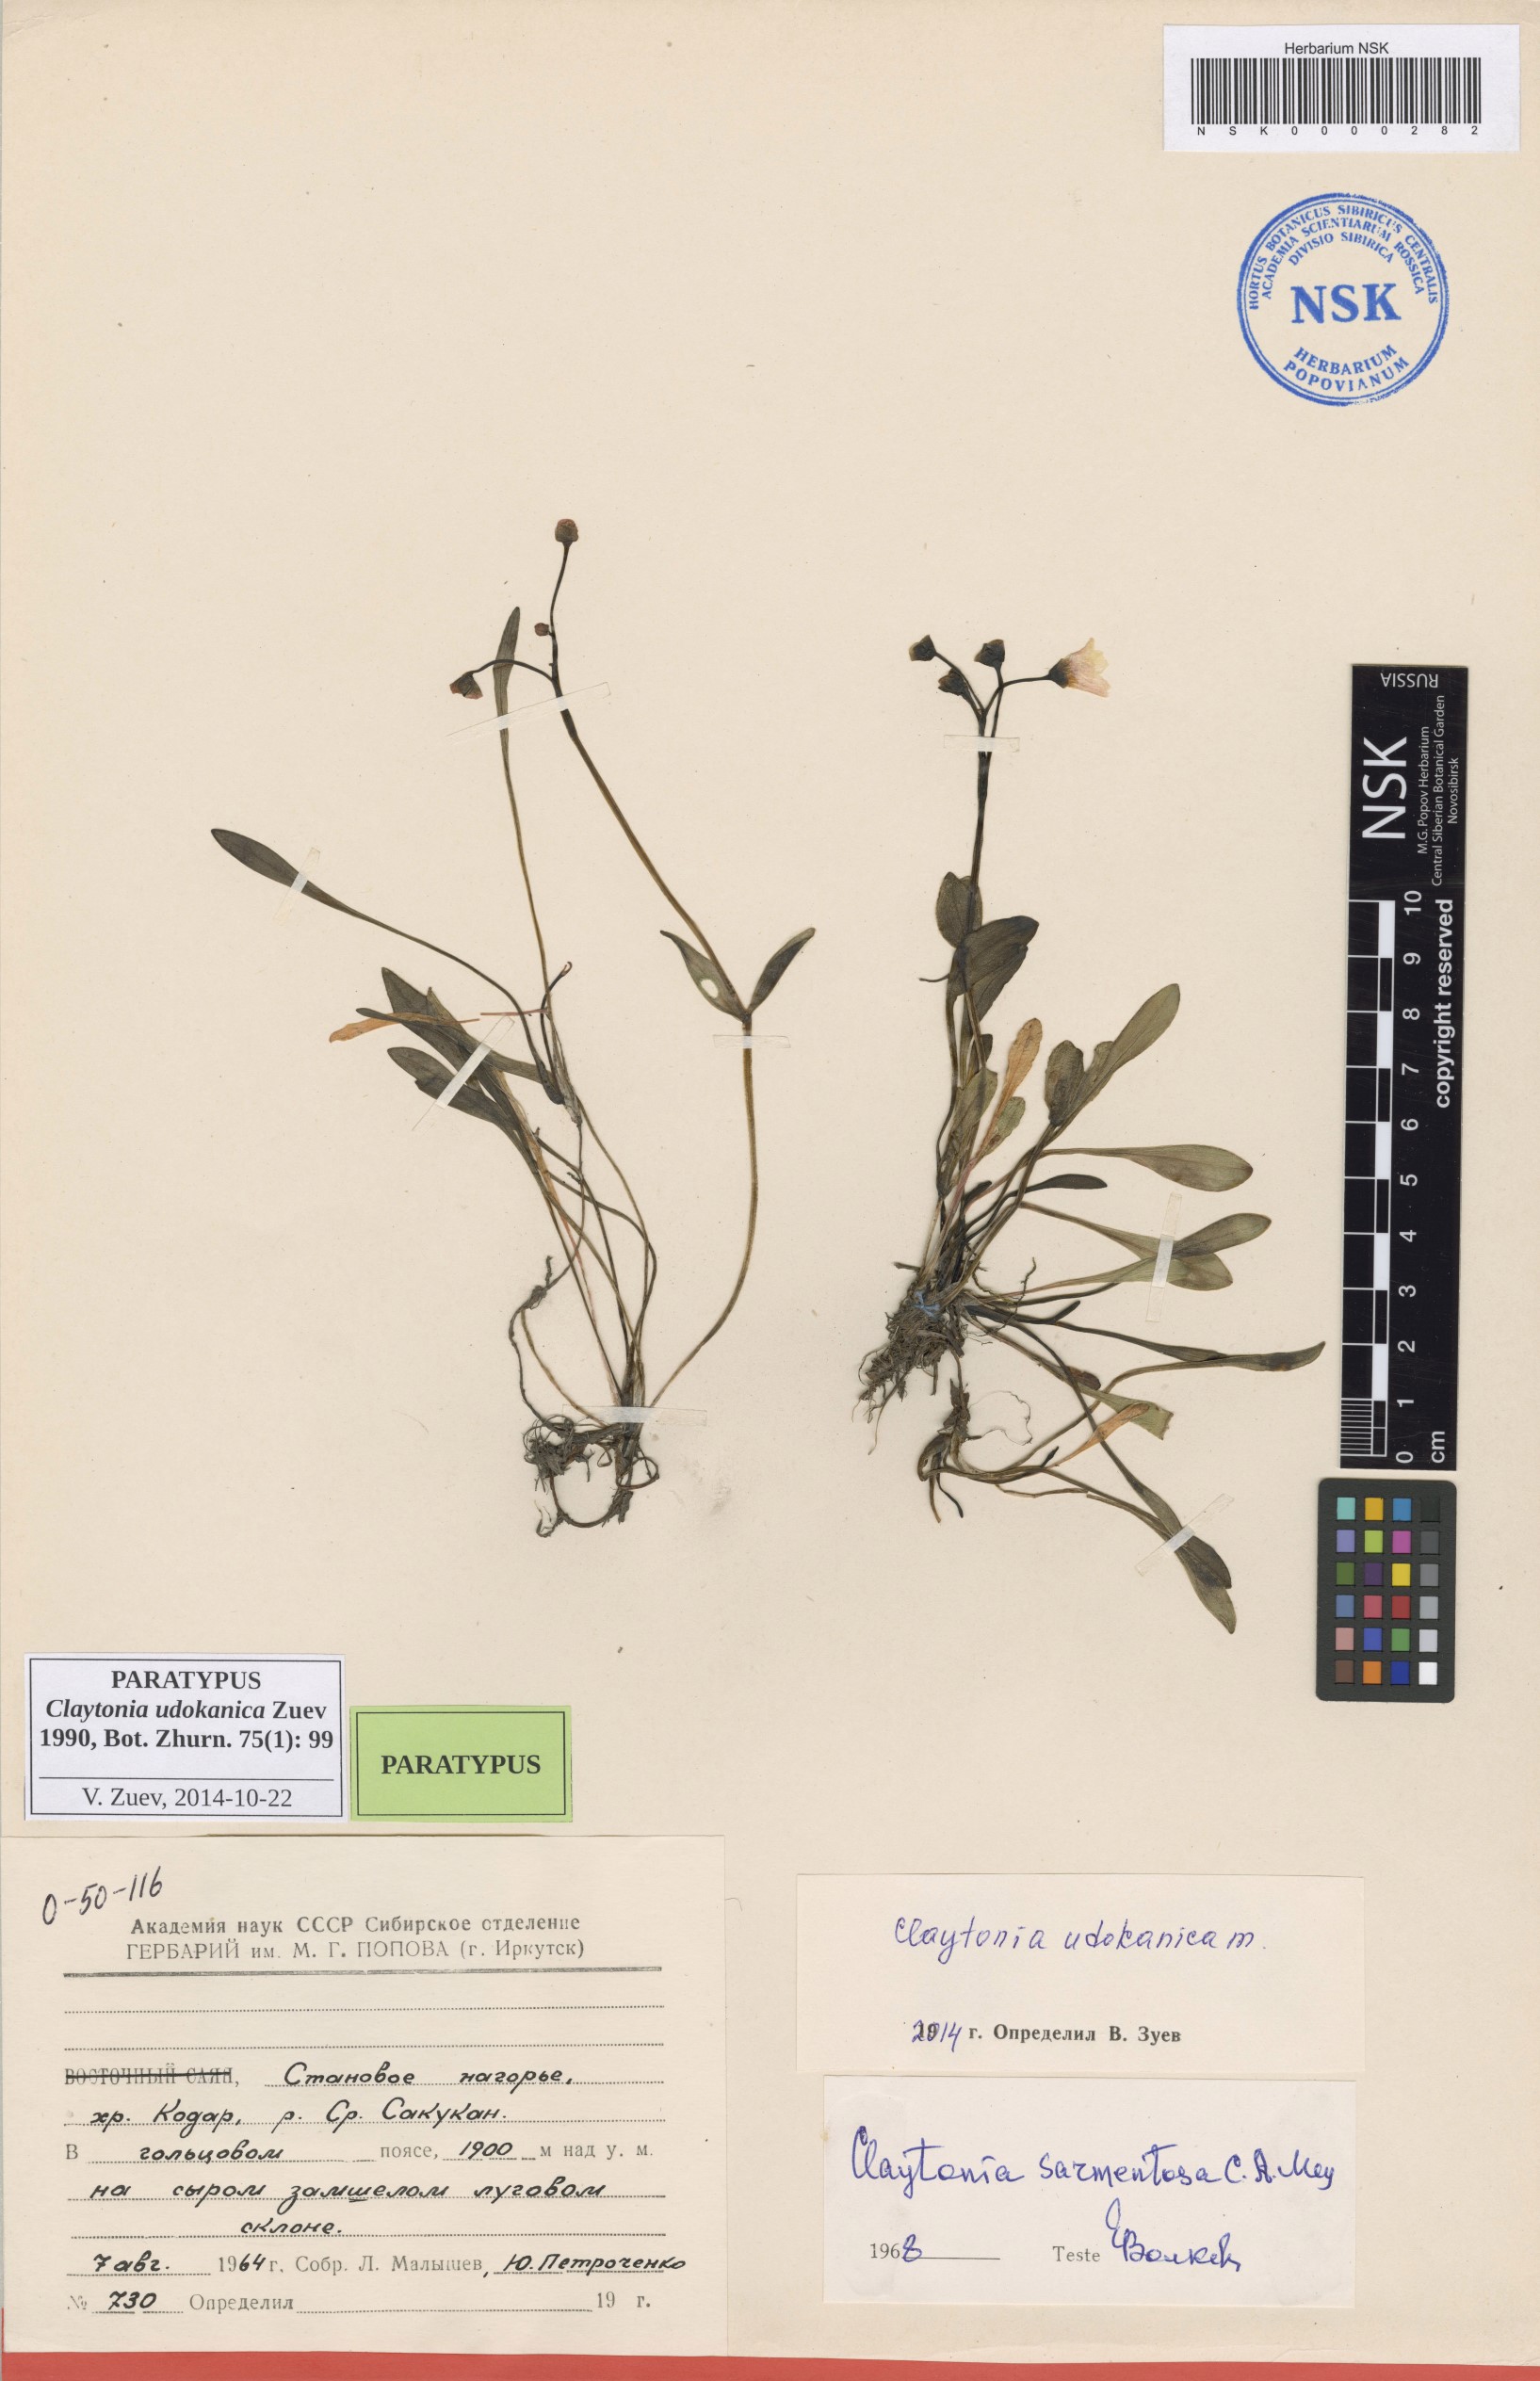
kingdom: Plantae
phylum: Tracheophyta
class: Magnoliopsida
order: Caryophyllales
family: Montiaceae
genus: Claytonia
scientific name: Claytonia udokanica
